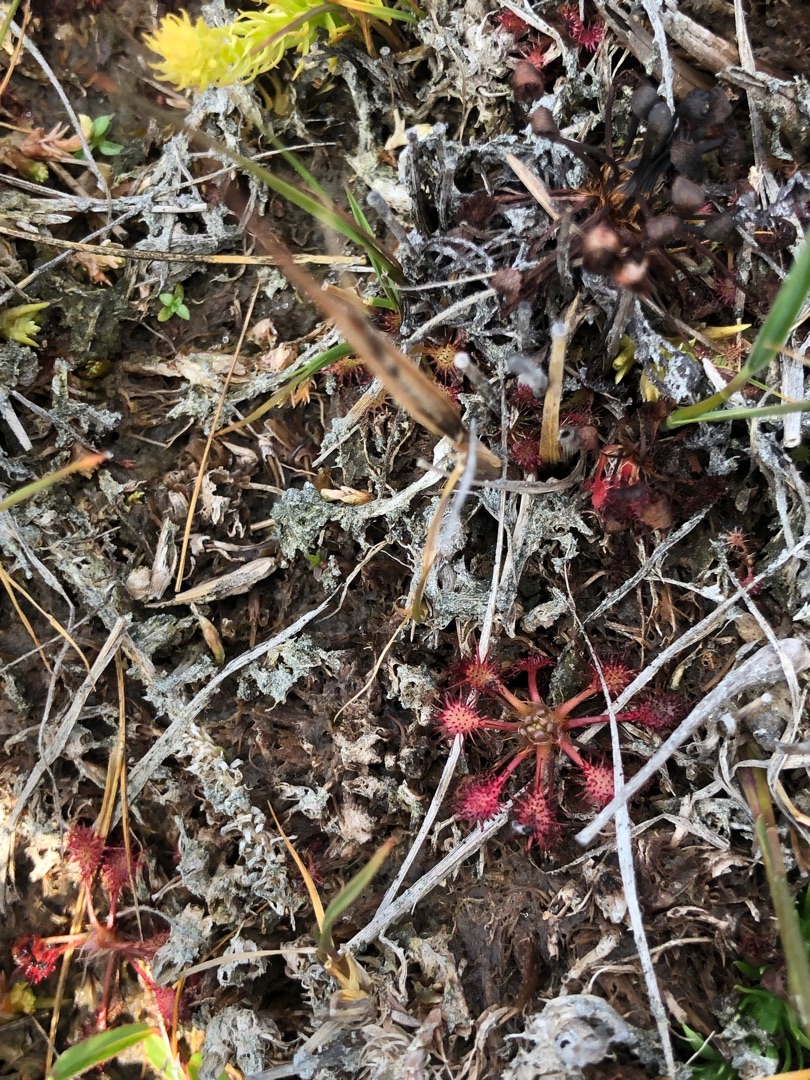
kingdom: Plantae
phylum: Tracheophyta
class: Magnoliopsida
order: Caryophyllales
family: Droseraceae
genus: Drosera
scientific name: Drosera intermedia
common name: Liden soldug
